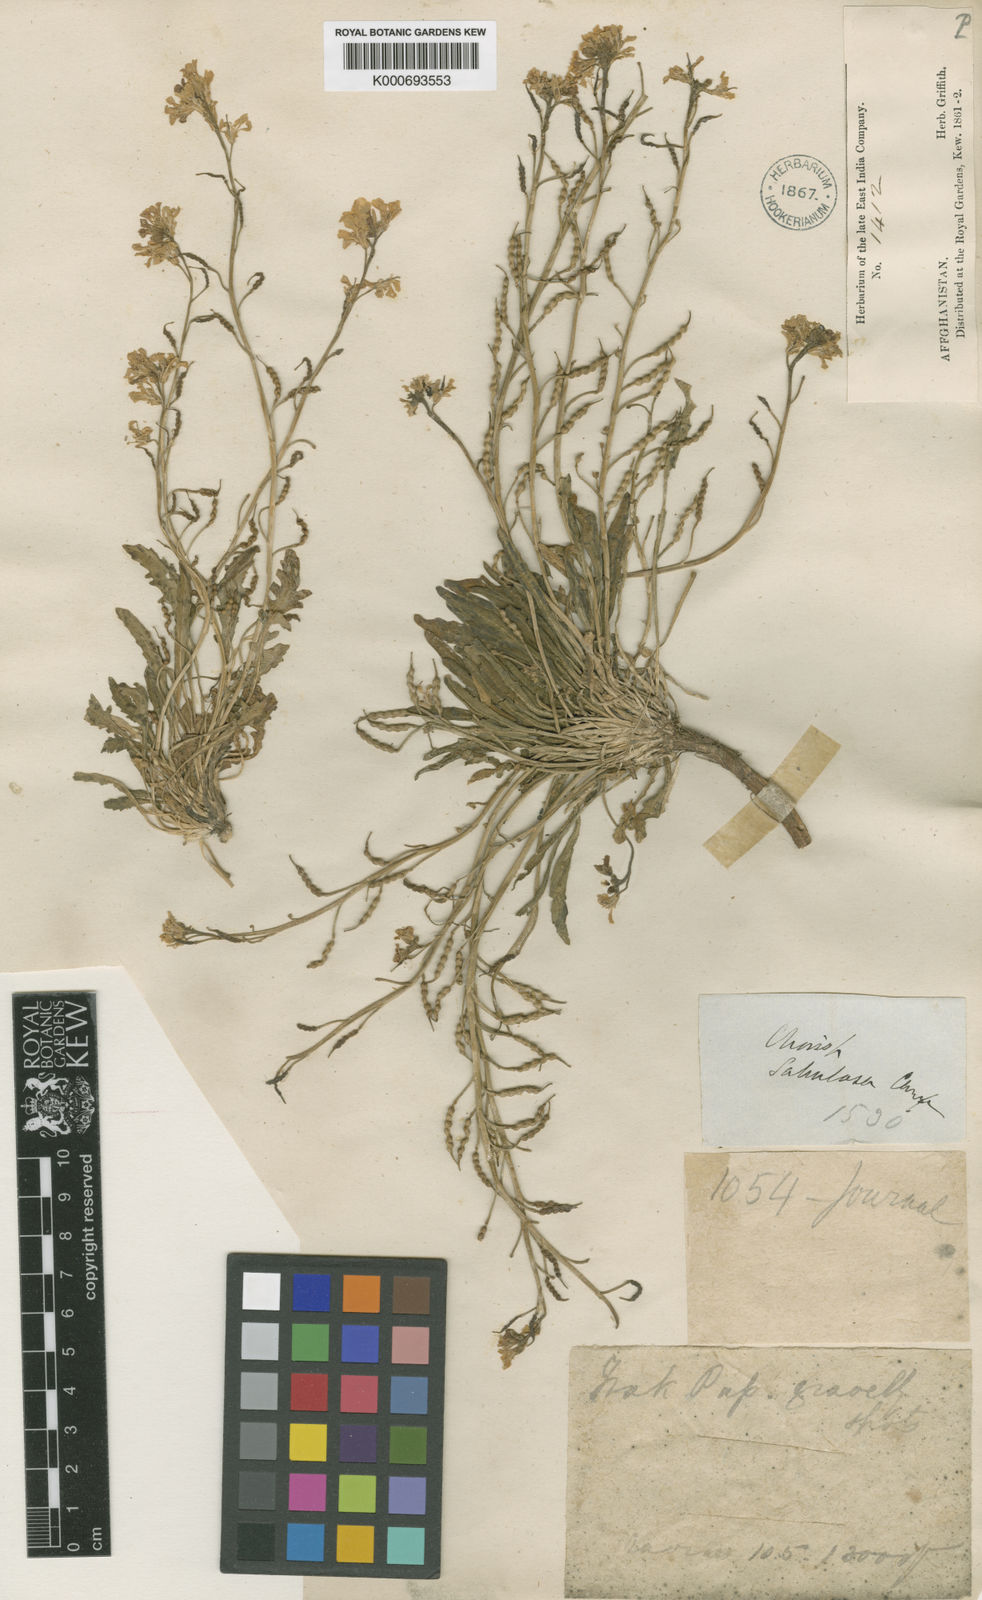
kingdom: Plantae
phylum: Tracheophyta
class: Magnoliopsida
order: Brassicales
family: Brassicaceae
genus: Chorispora
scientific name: Chorispora sabulosa
